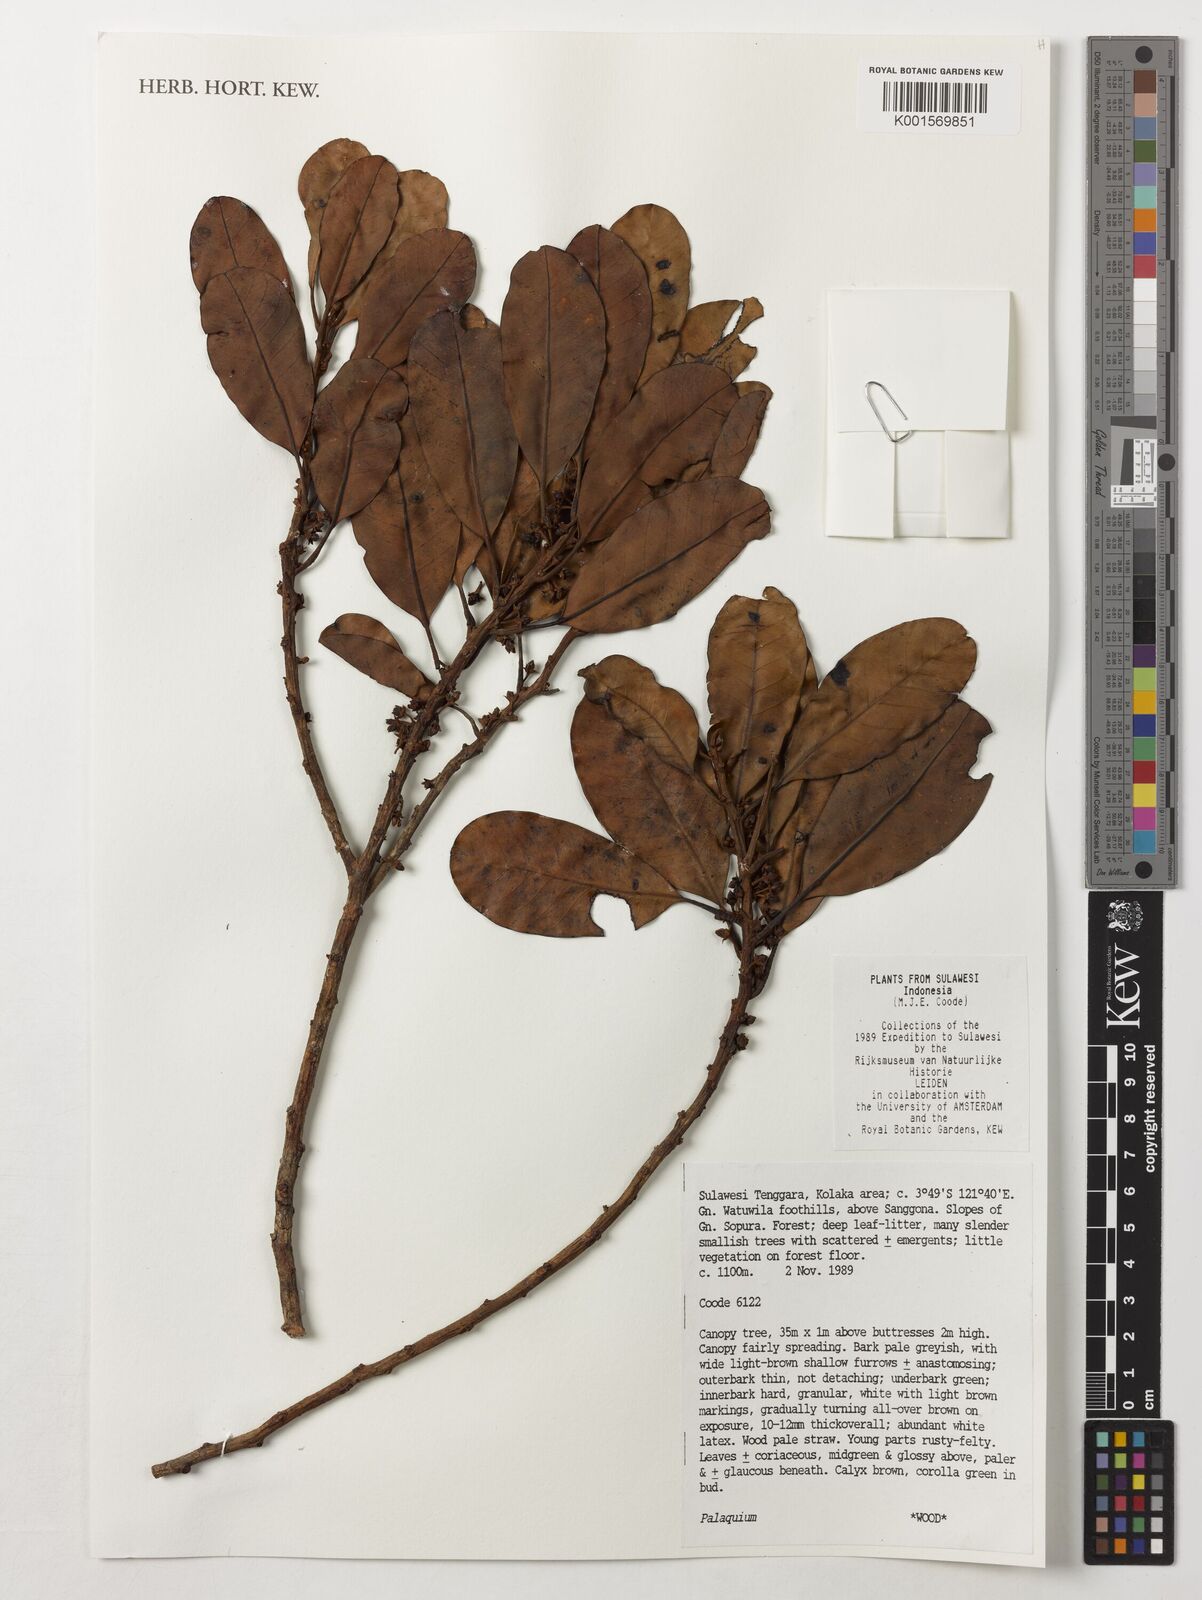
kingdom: Plantae
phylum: Tracheophyta
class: Magnoliopsida
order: Ericales
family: Sapotaceae
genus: Palaquium
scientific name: Palaquium
